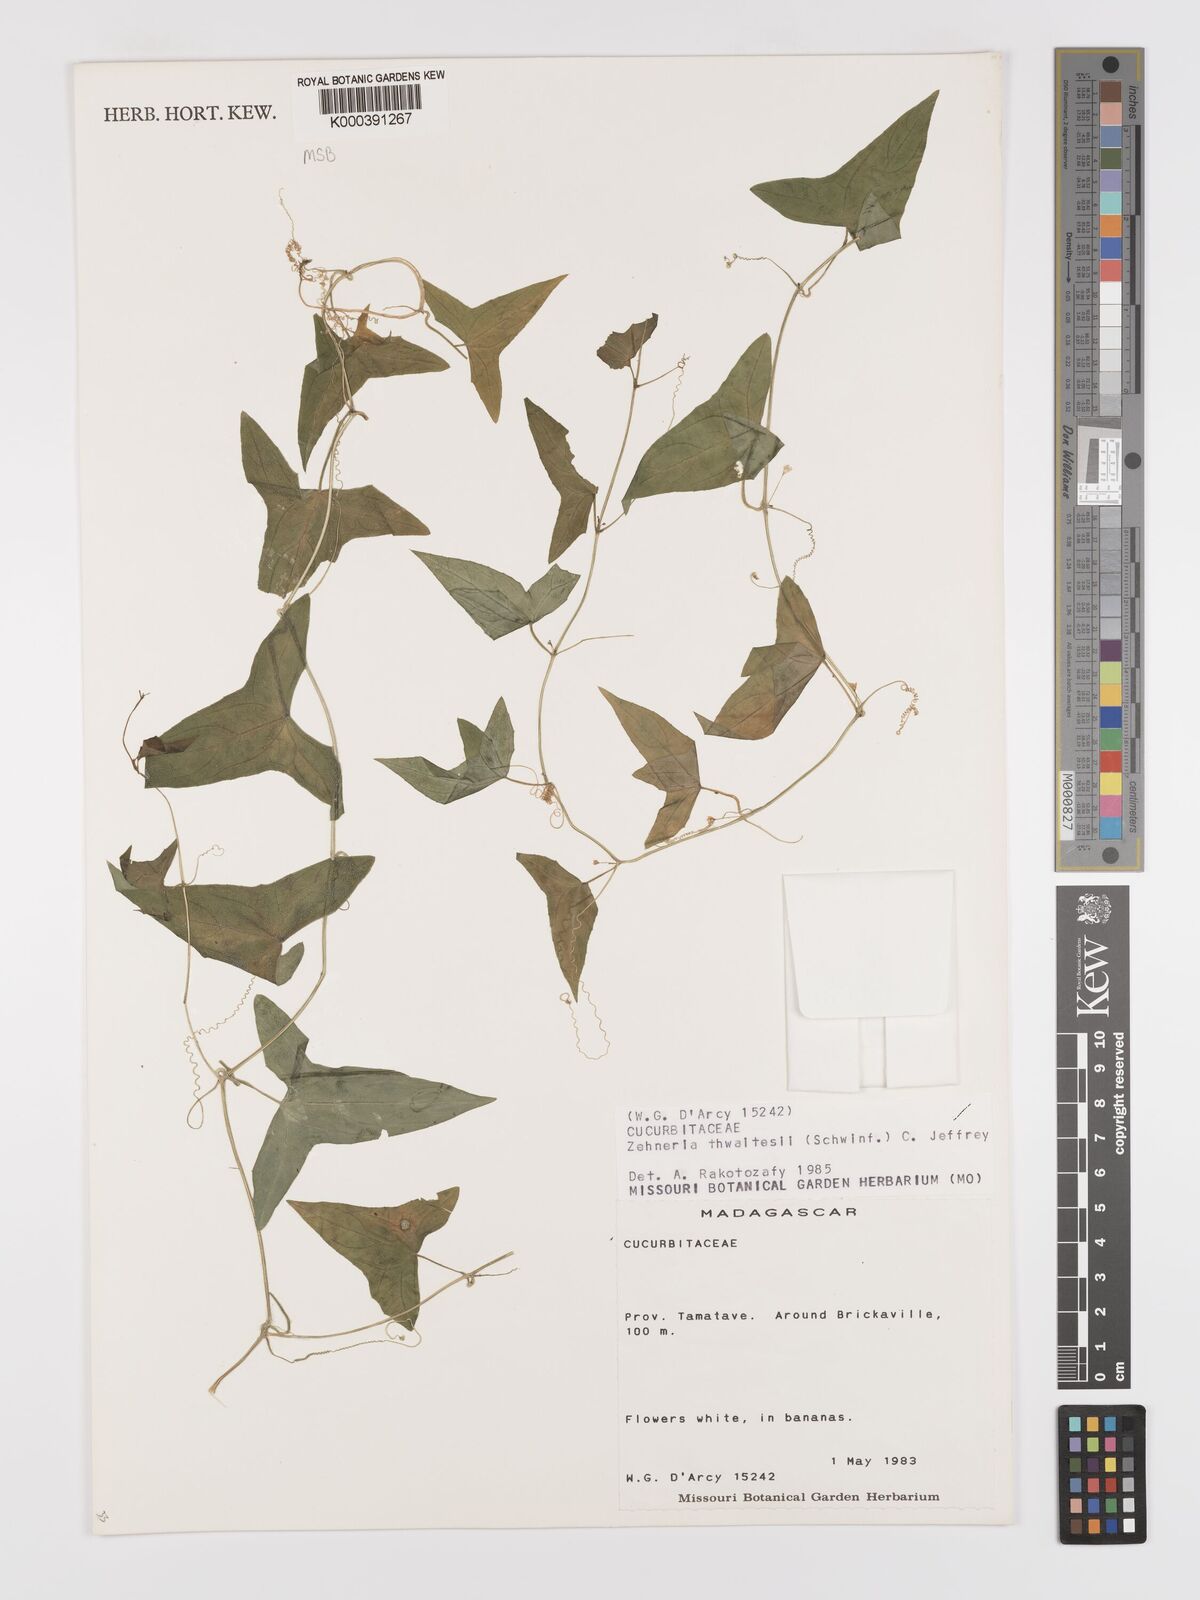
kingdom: Plantae
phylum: Tracheophyta
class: Magnoliopsida
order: Cucurbitales
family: Cucurbitaceae
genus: Zehneria
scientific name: Zehneria thwaitesii
